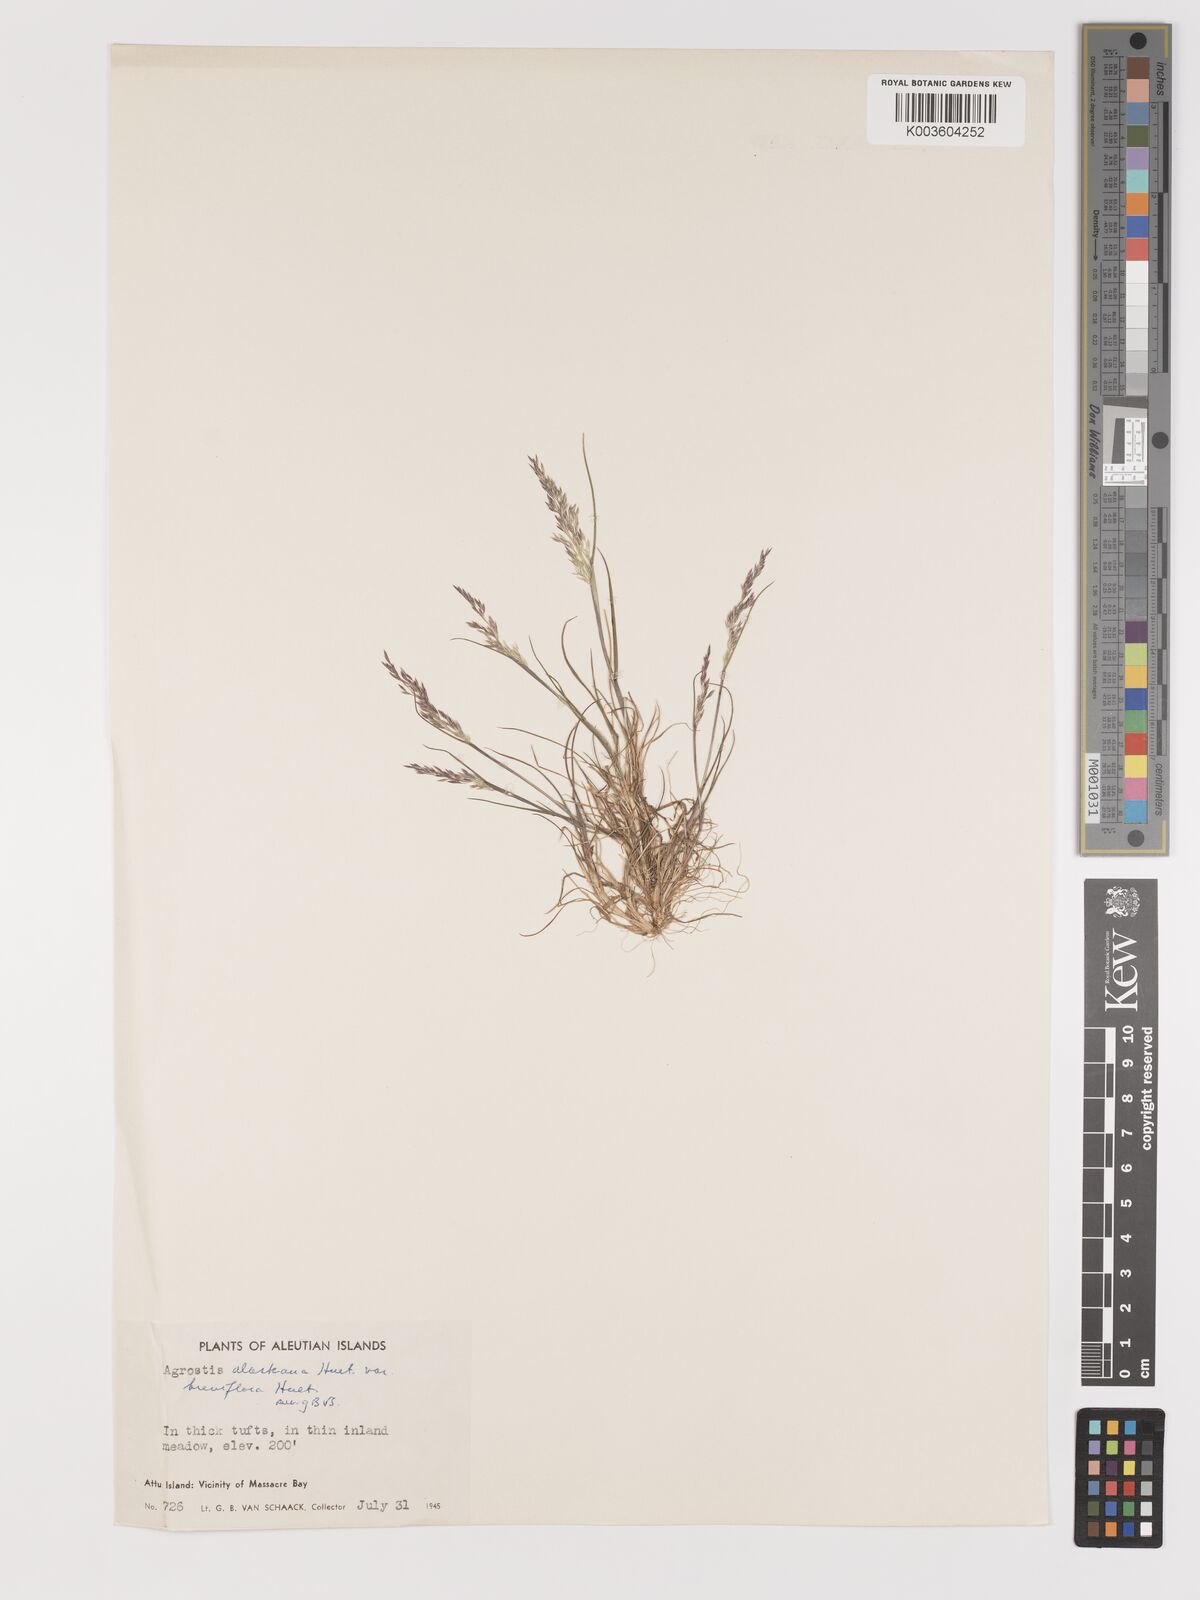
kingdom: Plantae
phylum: Tracheophyta
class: Liliopsida
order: Poales
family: Poaceae
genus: Agrostis
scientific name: Agrostis exarata
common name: Spike bent
